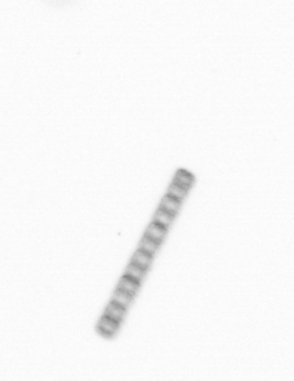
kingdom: Chromista
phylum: Ochrophyta
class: Bacillariophyceae
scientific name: Bacillariophyceae
